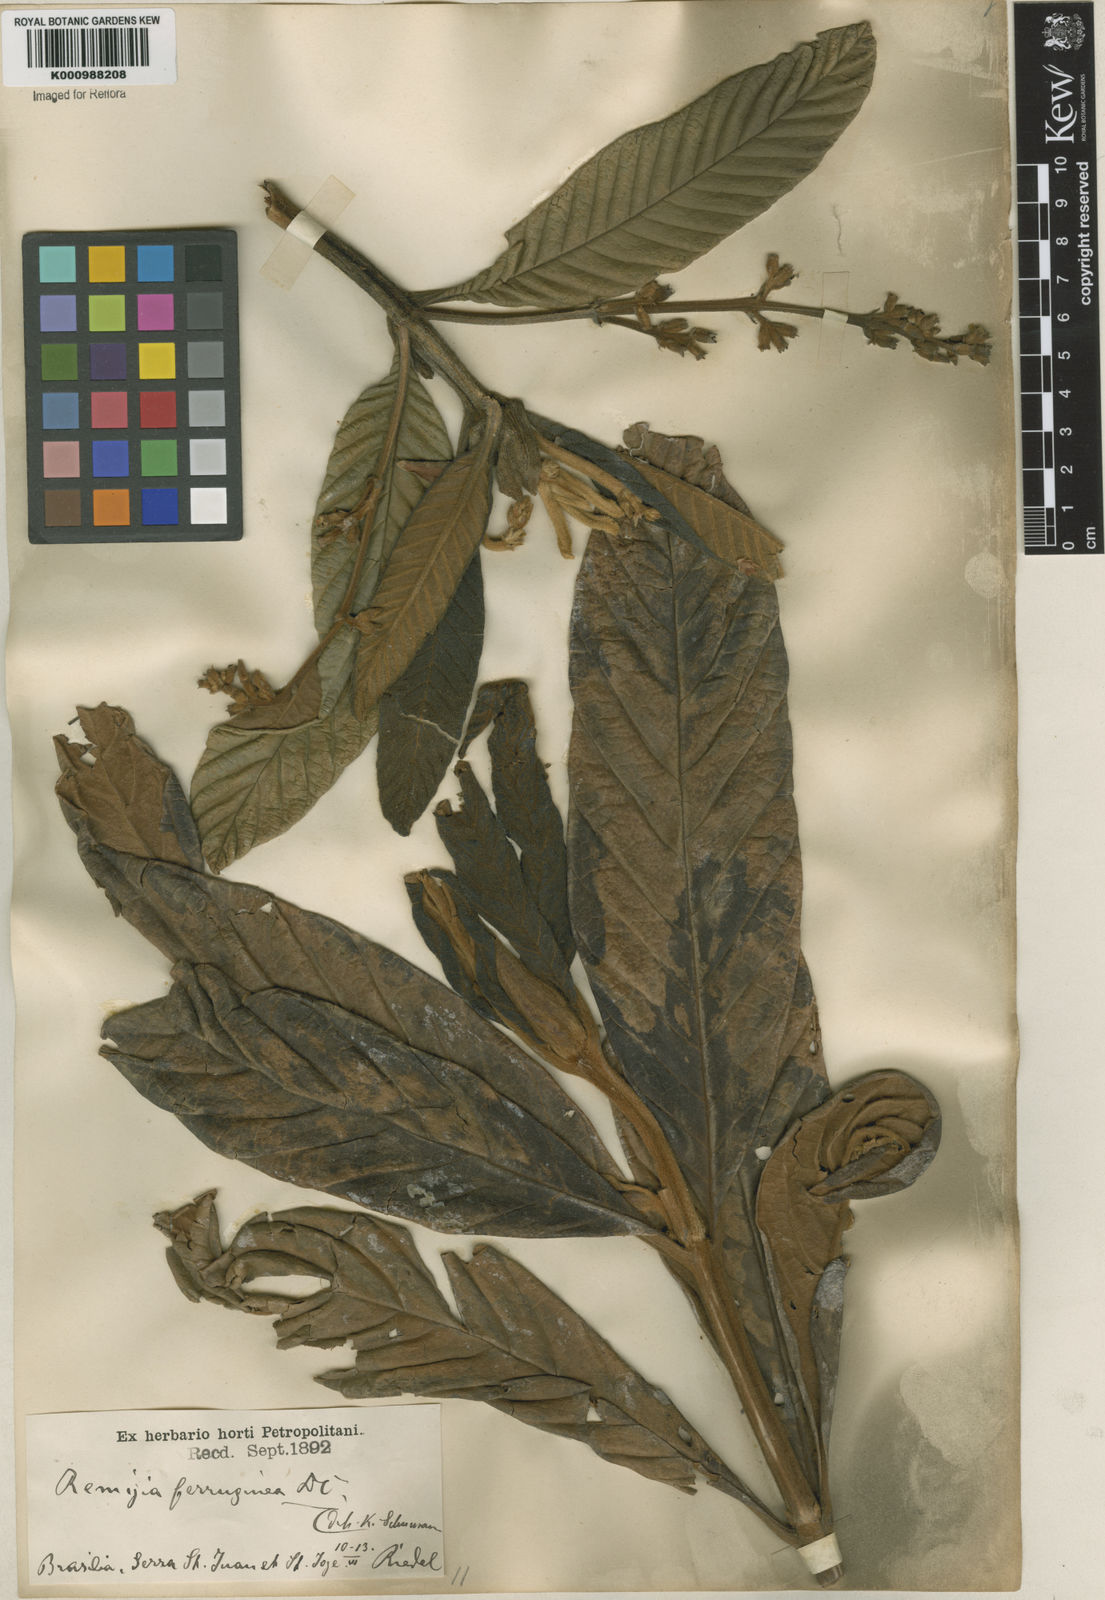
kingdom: Plantae
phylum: Tracheophyta
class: Magnoliopsida
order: Gentianales
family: Rubiaceae
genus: Remijia
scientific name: Remijia ferruginea
